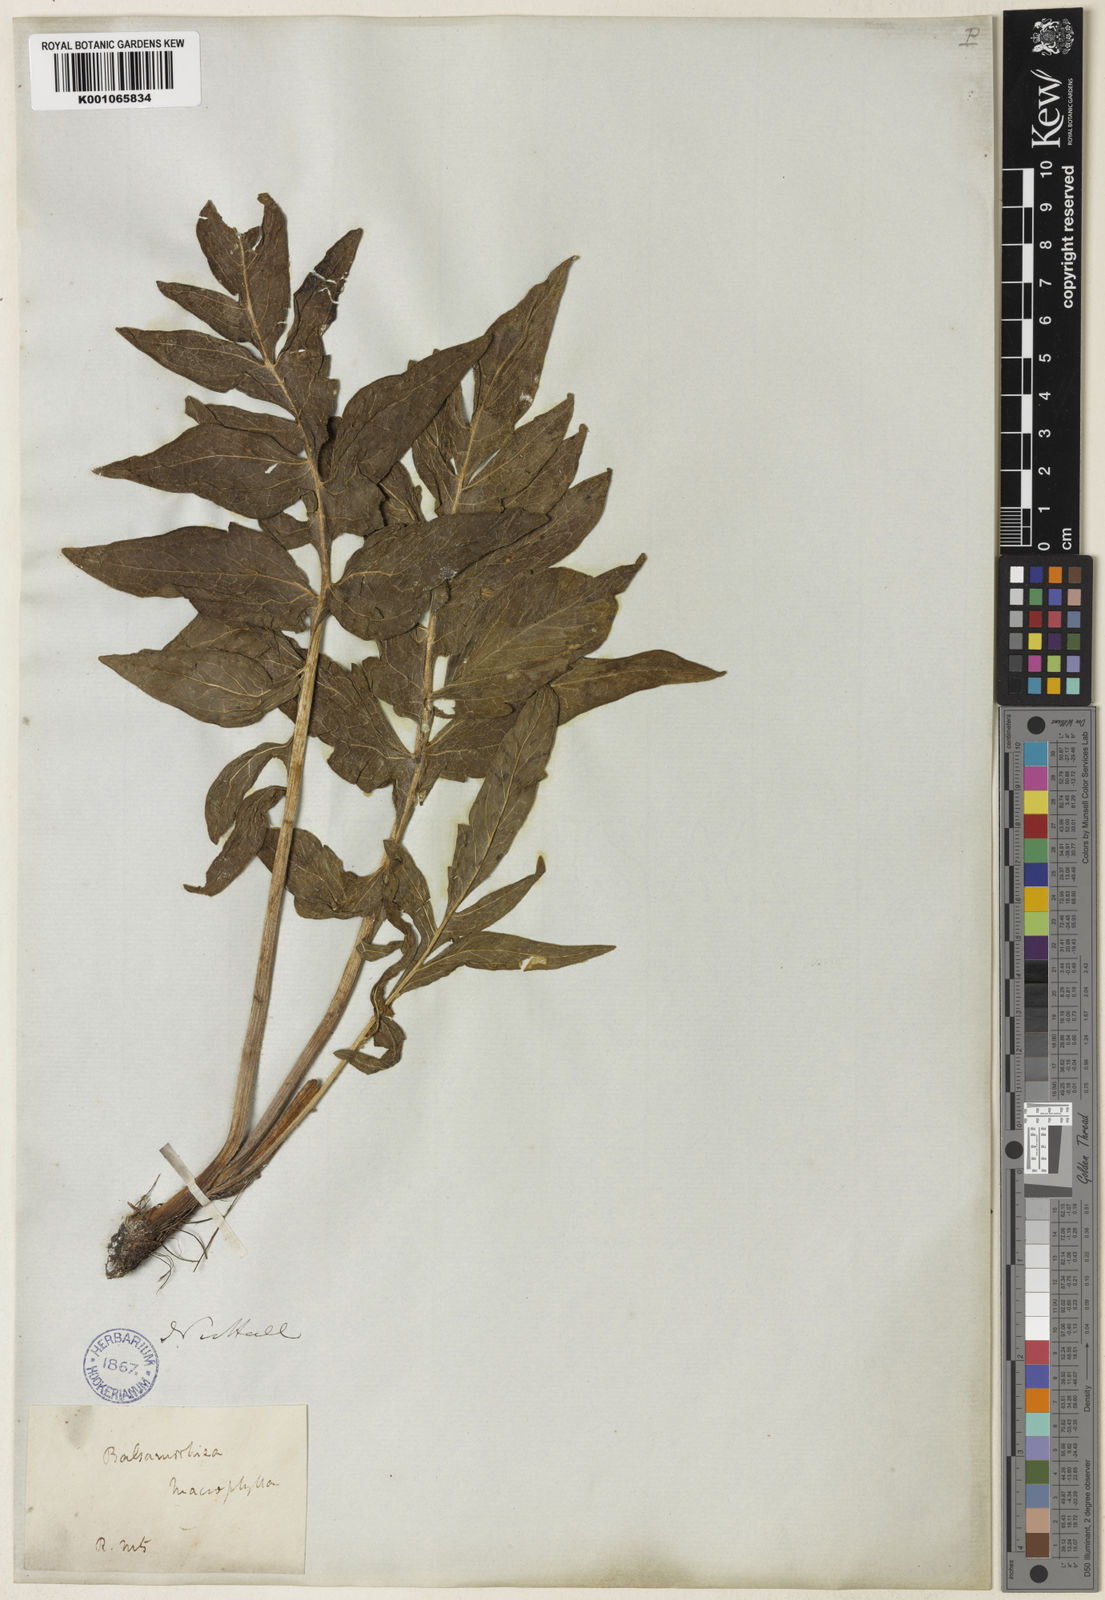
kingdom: Plantae
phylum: Tracheophyta
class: Magnoliopsida
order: Asterales
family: Asteraceae
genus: Balsamorhiza
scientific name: Balsamorhiza macrophylla
